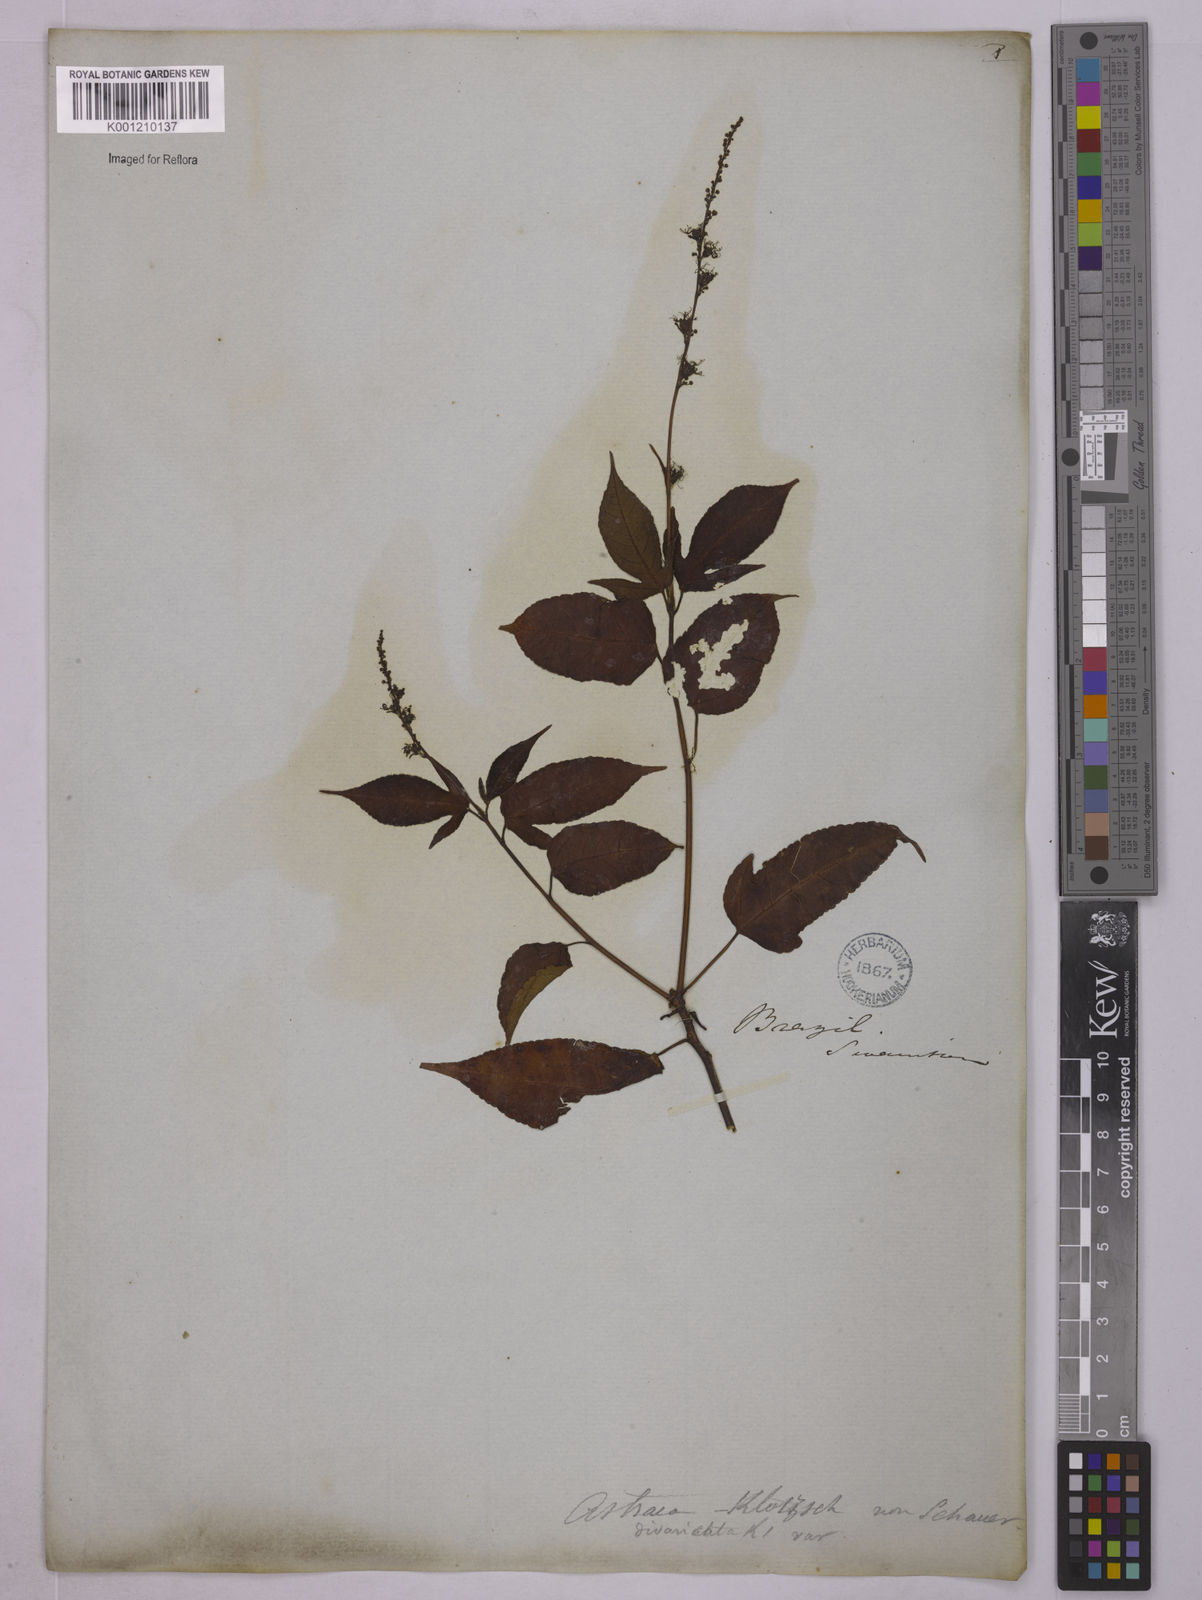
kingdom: Plantae
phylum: Tracheophyta
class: Magnoliopsida
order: Malpighiales
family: Euphorbiaceae
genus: Astraea
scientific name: Astraea macroura
